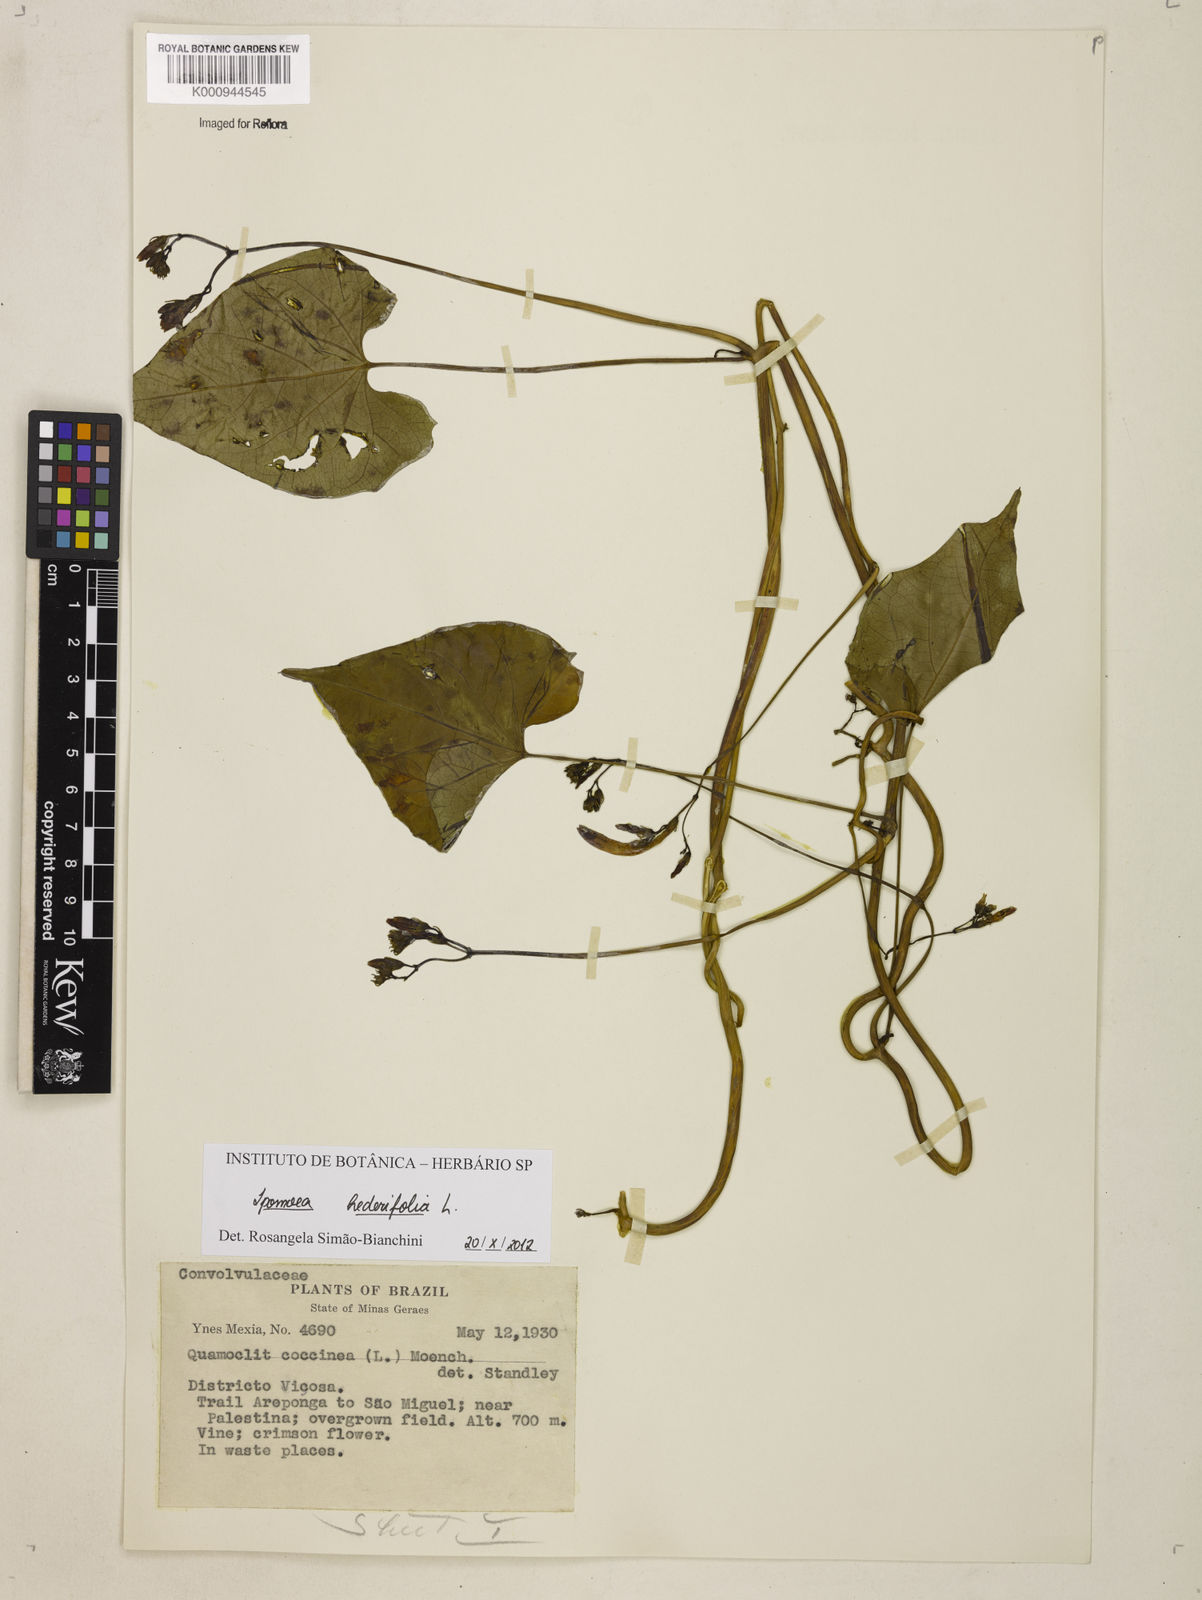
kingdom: Plantae
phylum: Tracheophyta
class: Magnoliopsida
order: Solanales
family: Convolvulaceae
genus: Ipomoea
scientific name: Ipomoea hederifolia
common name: Ivy-leaf morning-glory
